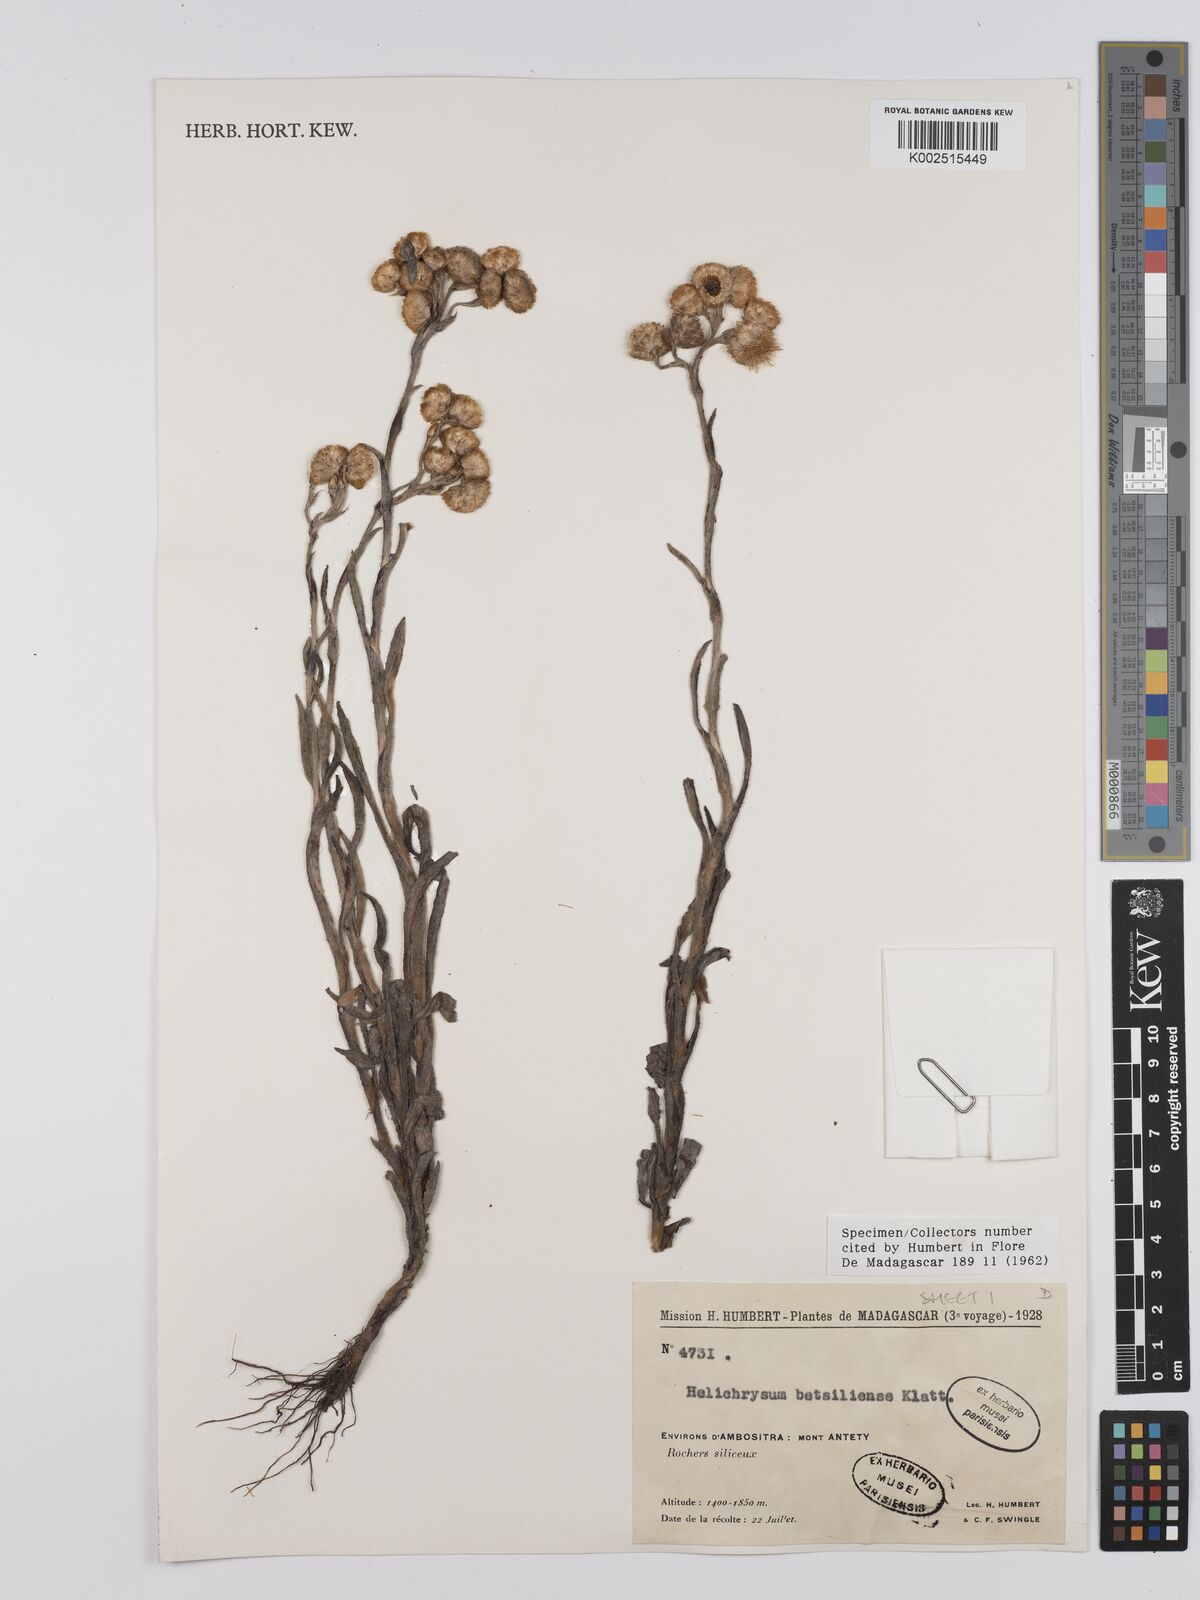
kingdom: Plantae
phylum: Tracheophyta
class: Magnoliopsida
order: Asterales
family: Asteraceae
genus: Helichrysum
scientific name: Helichrysum ambositrense
